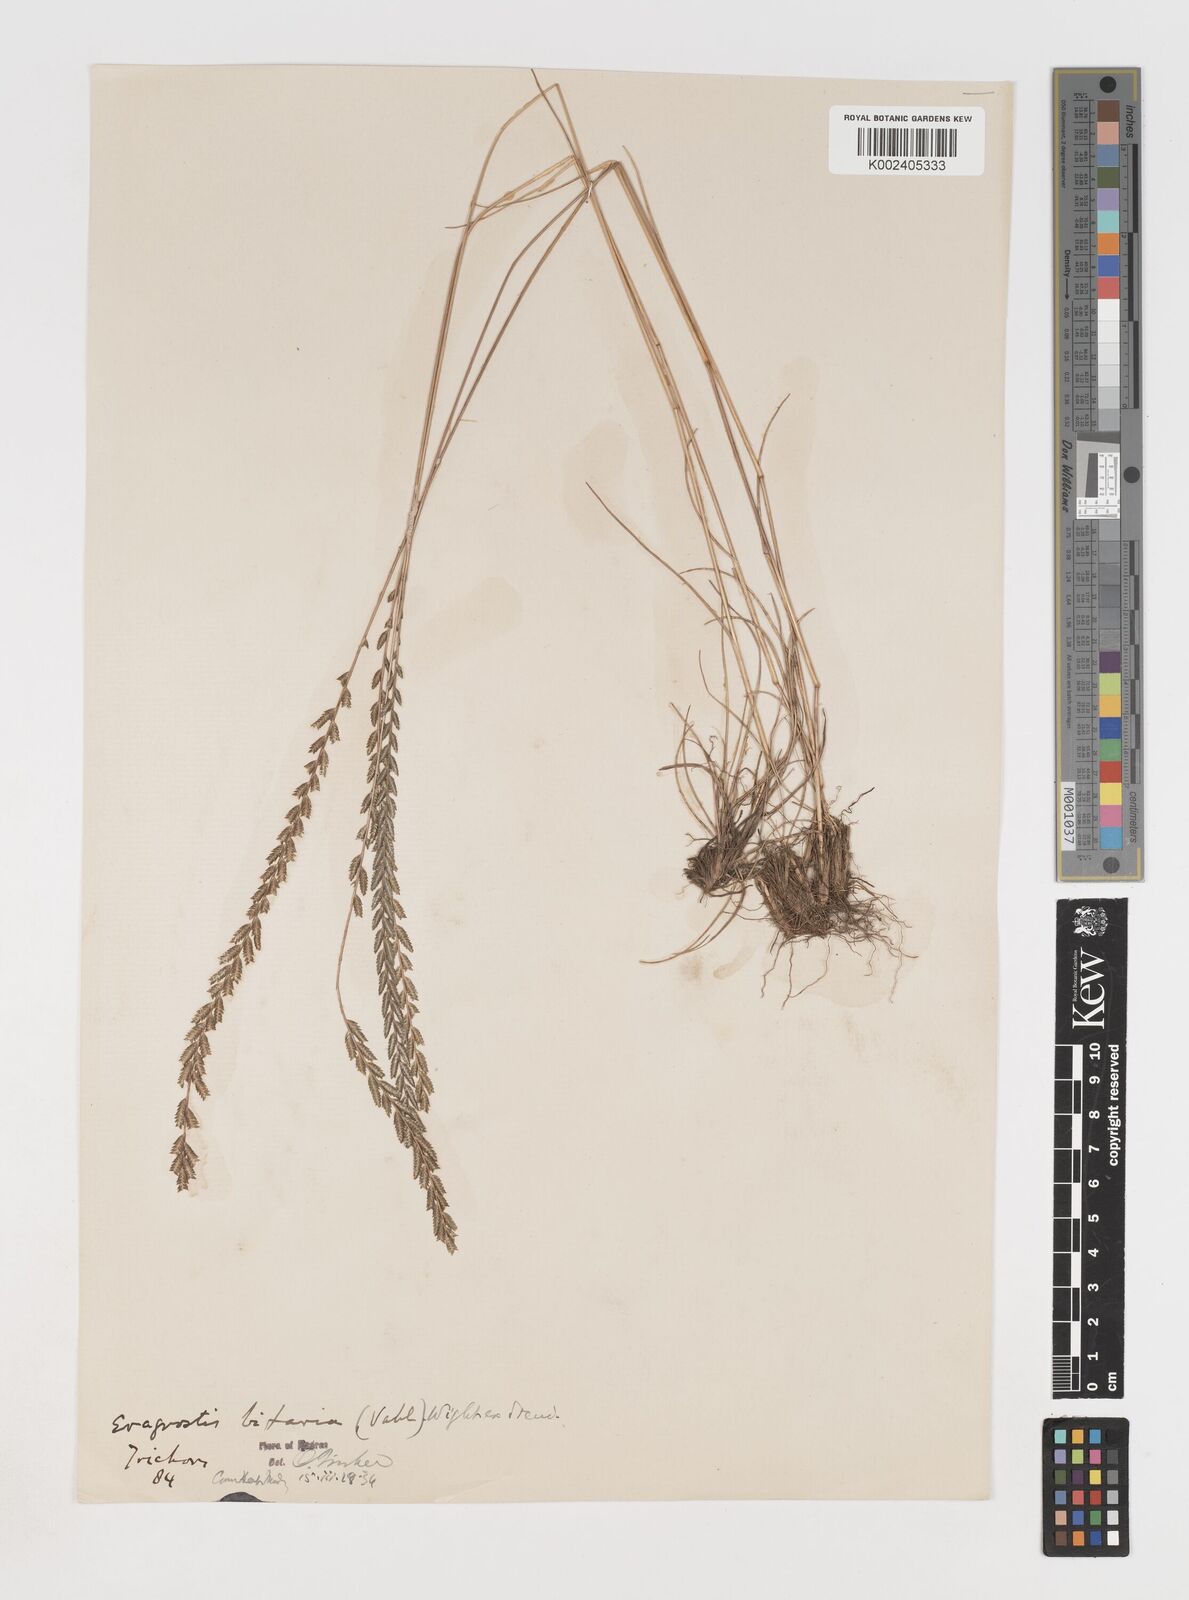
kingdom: Plantae
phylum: Tracheophyta
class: Liliopsida
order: Poales
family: Poaceae
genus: Eragrostiella
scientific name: Eragrostiella bifaria
